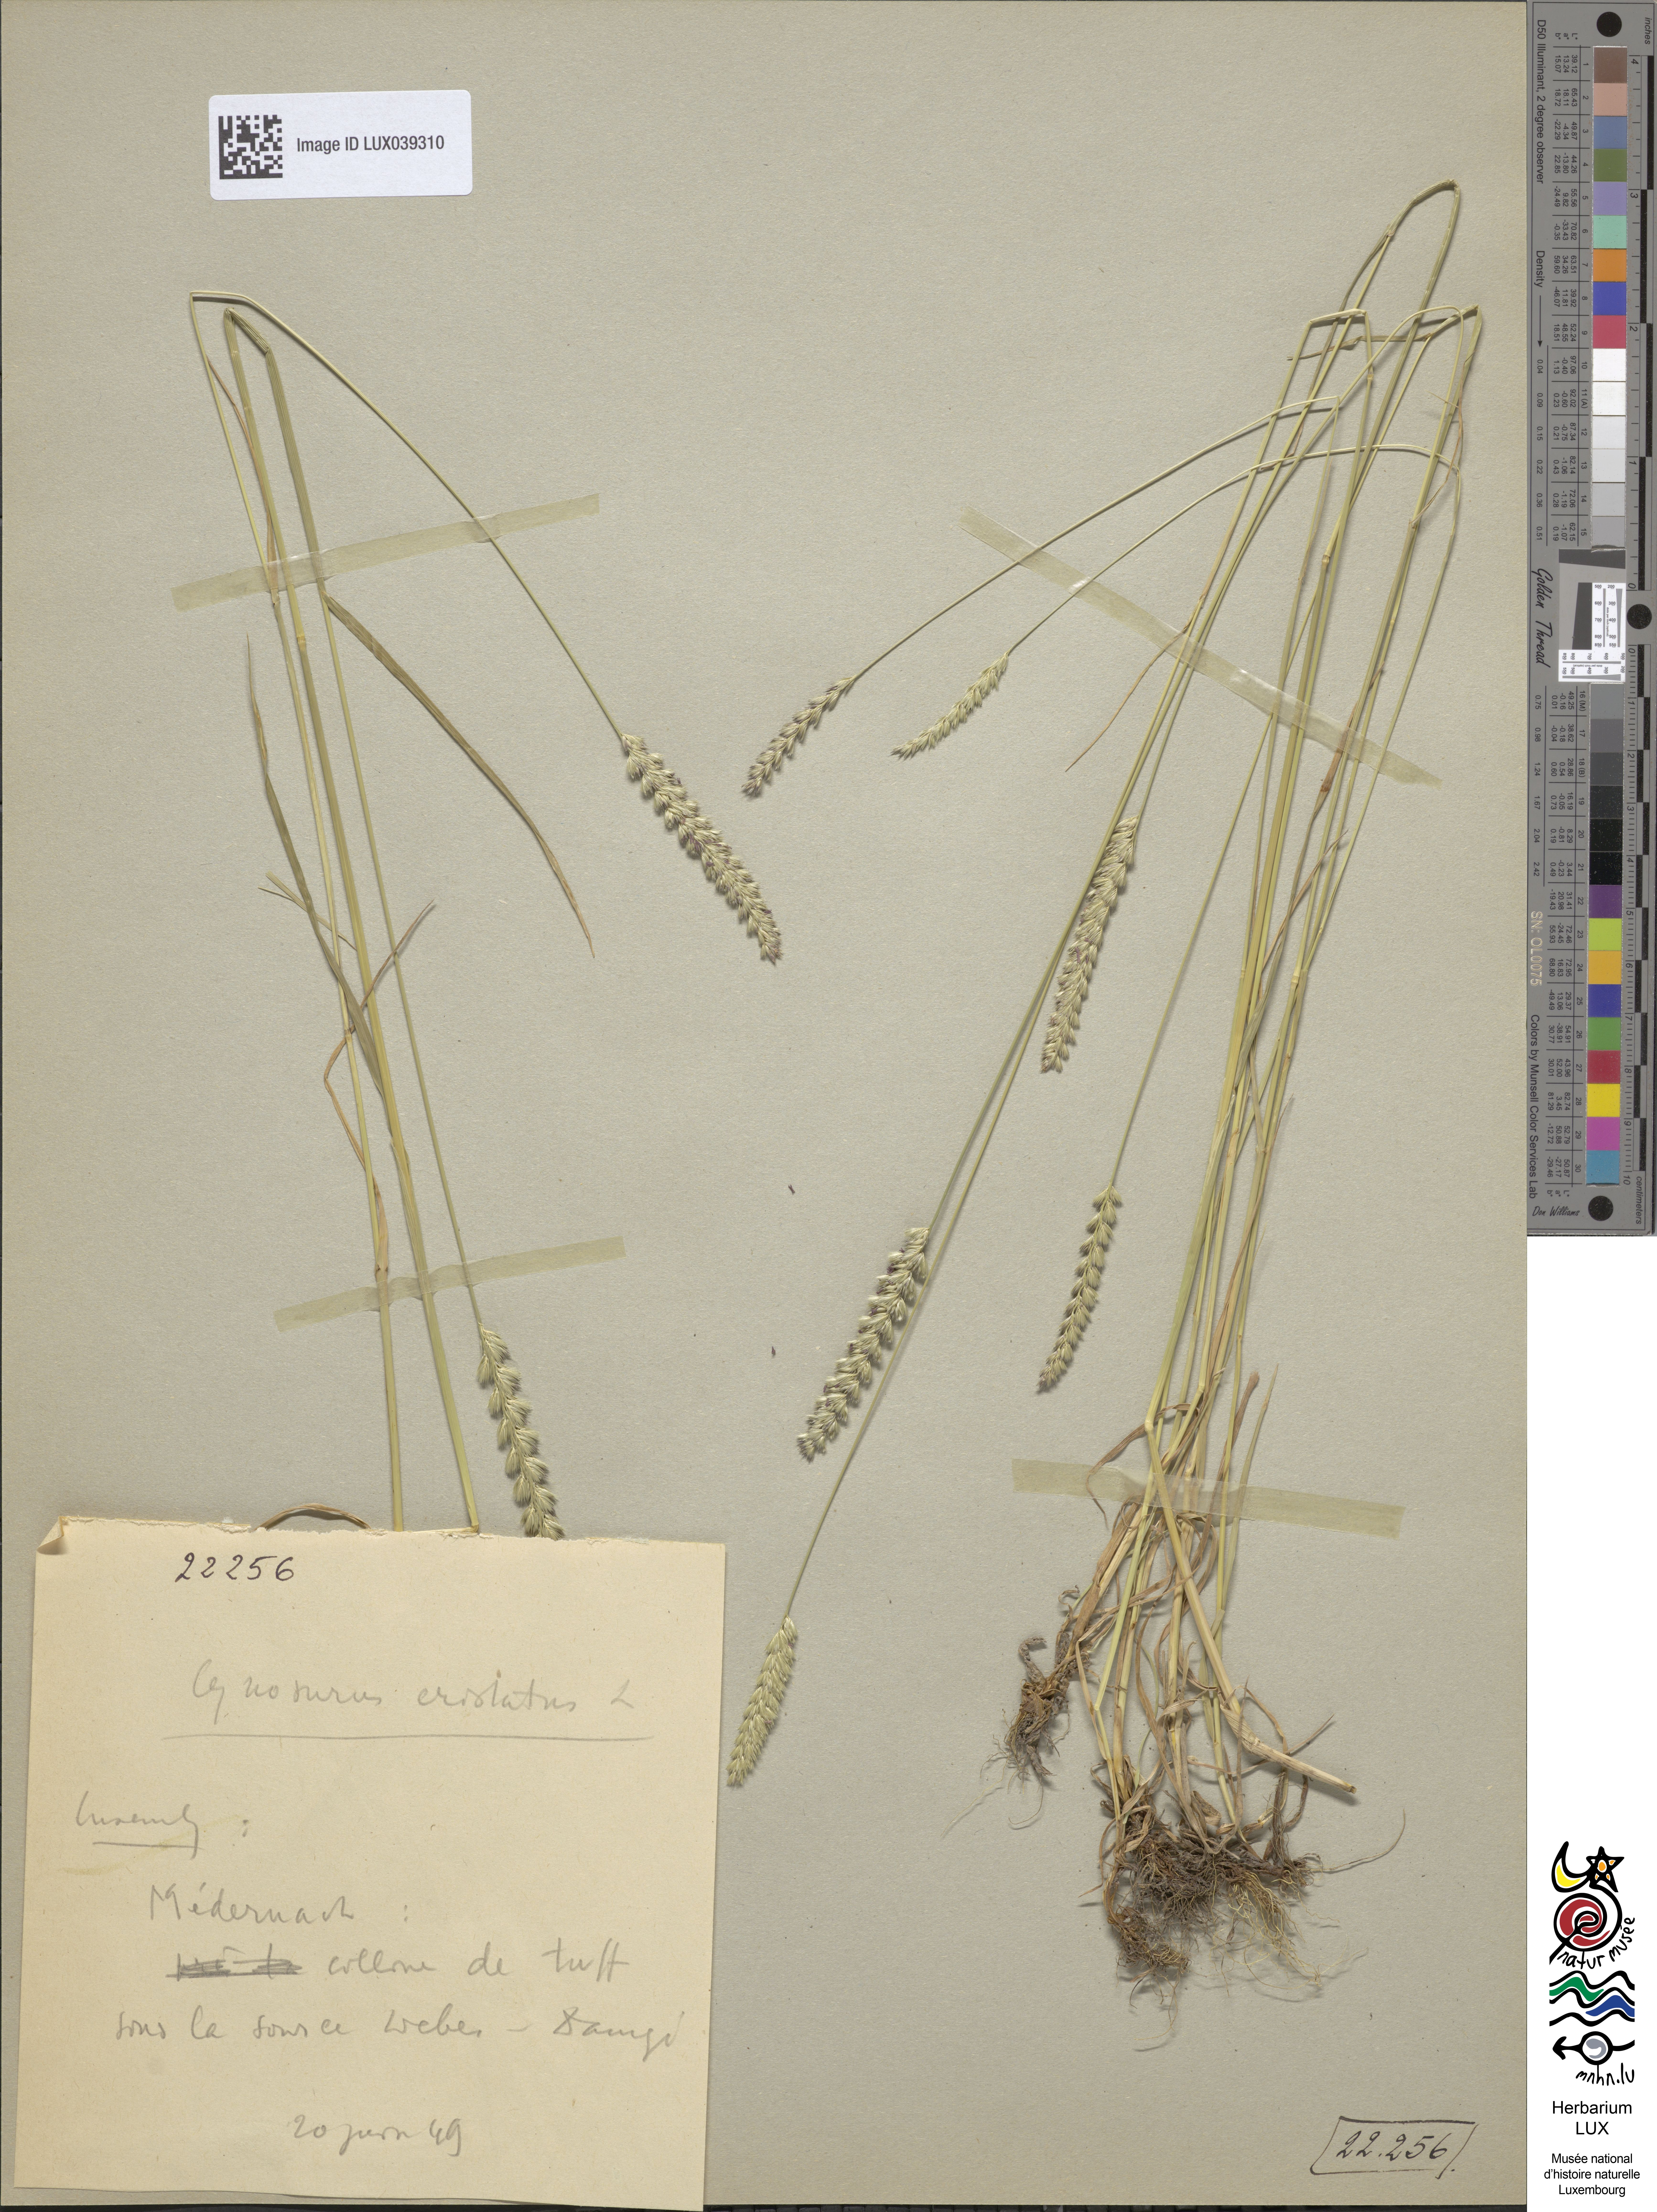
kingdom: Plantae
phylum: Tracheophyta
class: Liliopsida
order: Poales
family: Poaceae
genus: Cynosurus
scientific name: Cynosurus cristatus
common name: Crested dog's-tail
